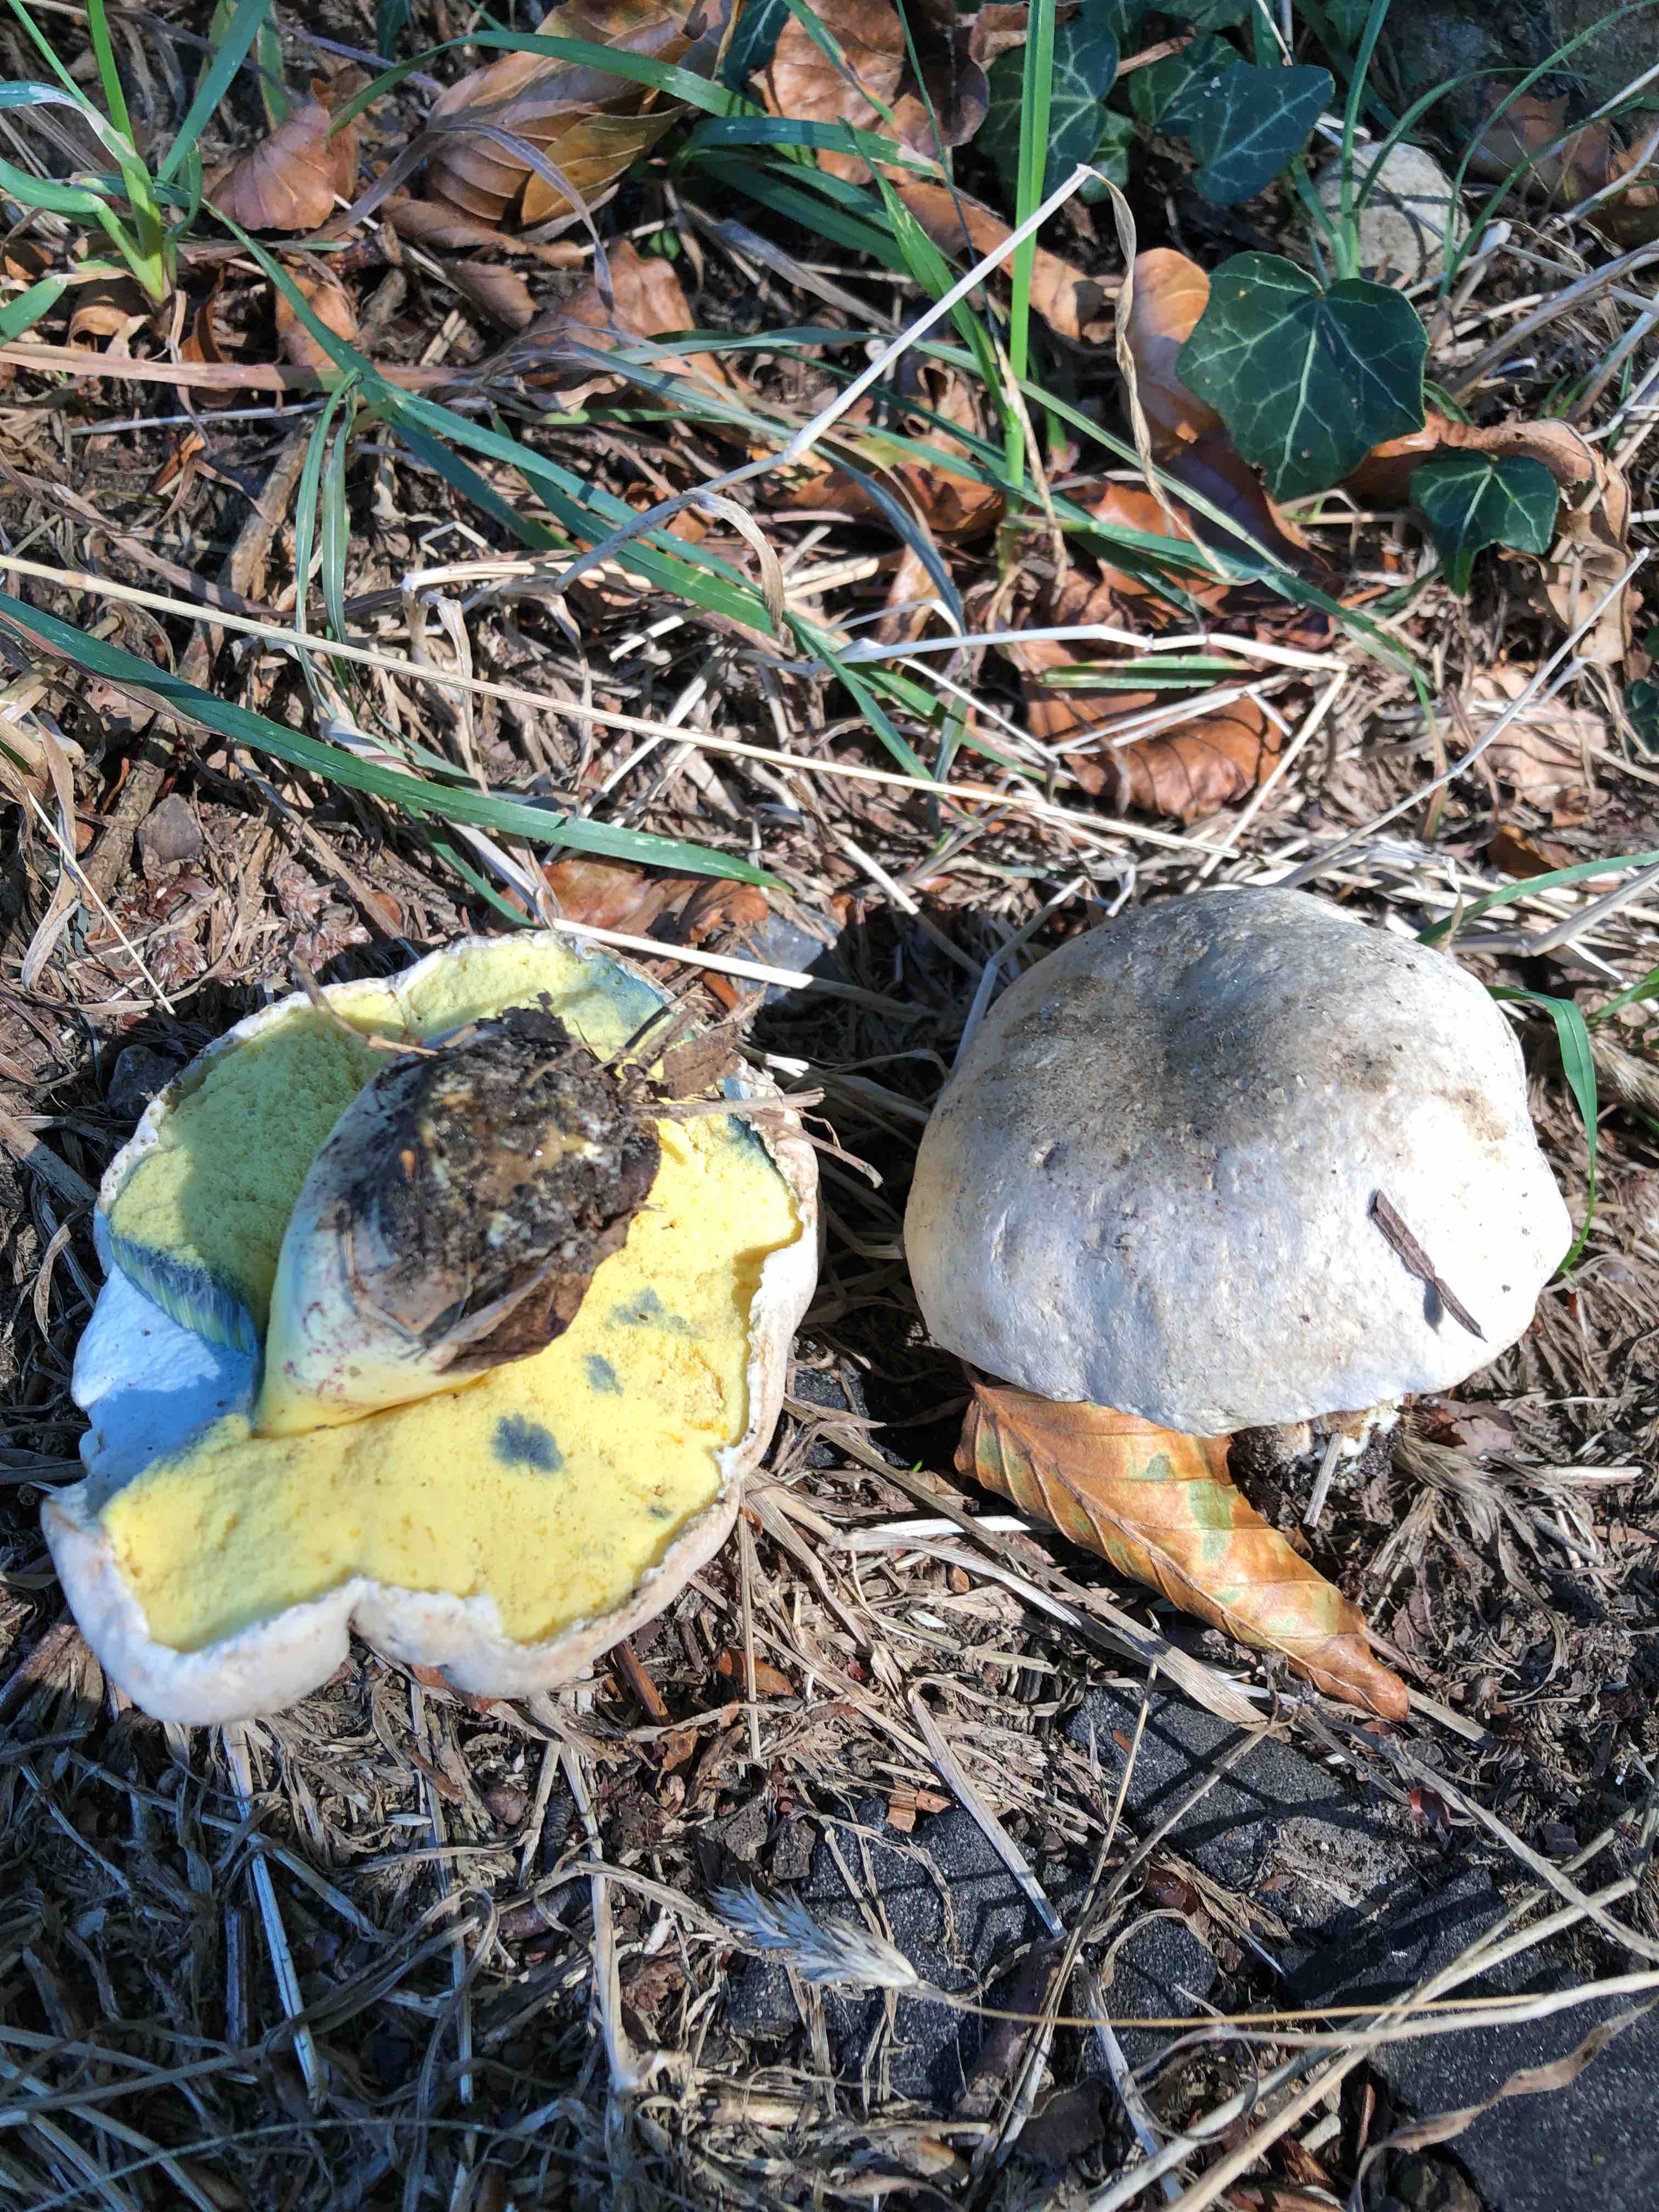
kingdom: Fungi
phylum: Basidiomycota
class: Agaricomycetes
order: Boletales
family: Boletaceae
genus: Caloboletus
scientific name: Caloboletus radicans
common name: rod-rørhat
